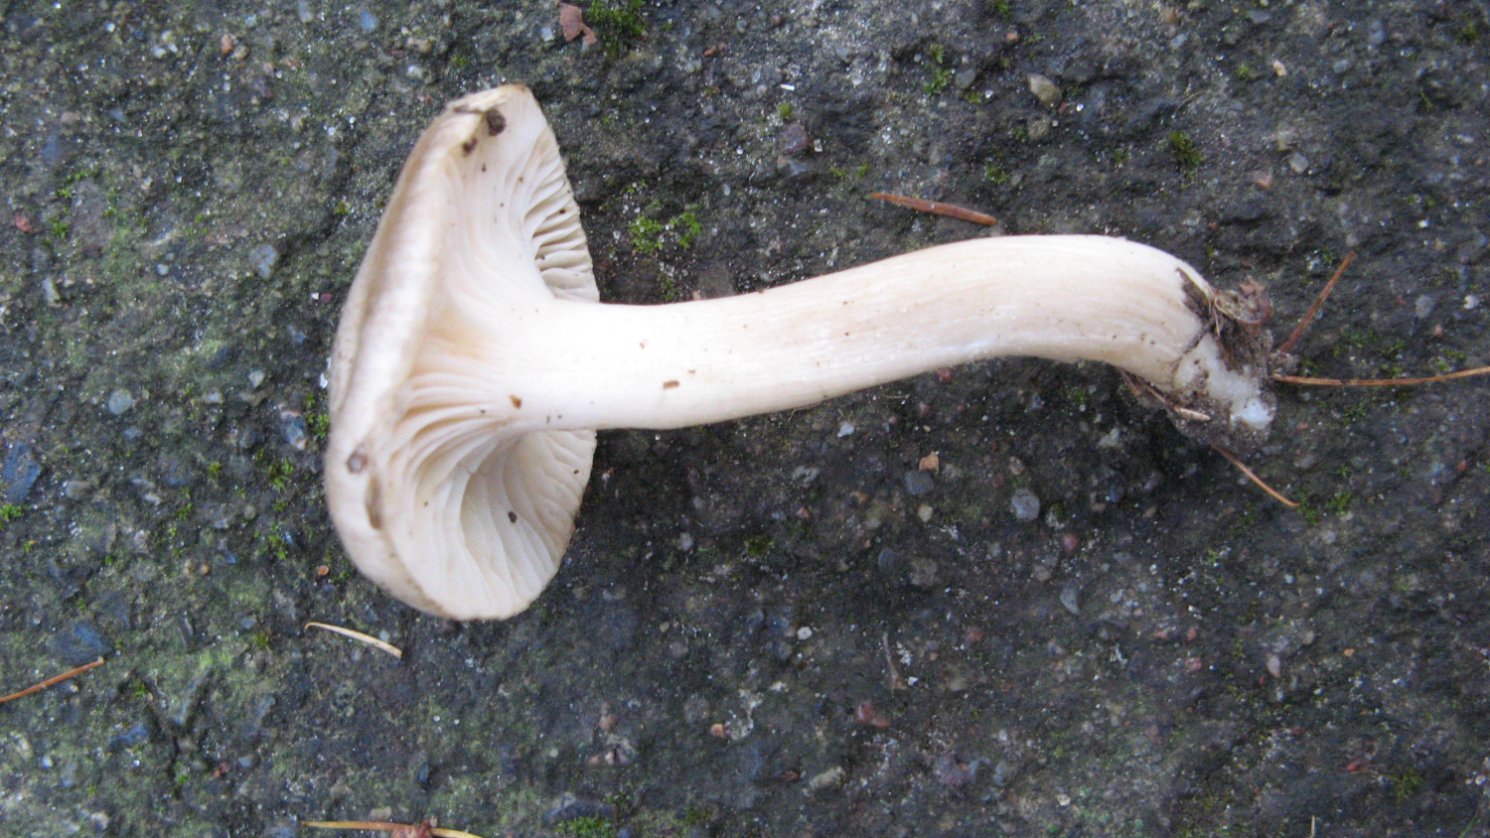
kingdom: Fungi
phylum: Basidiomycota
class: Agaricomycetes
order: Agaricales
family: Hygrophoraceae
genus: Hygrophorus
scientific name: Hygrophorus agathosmus
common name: vellugtende sneglehat
